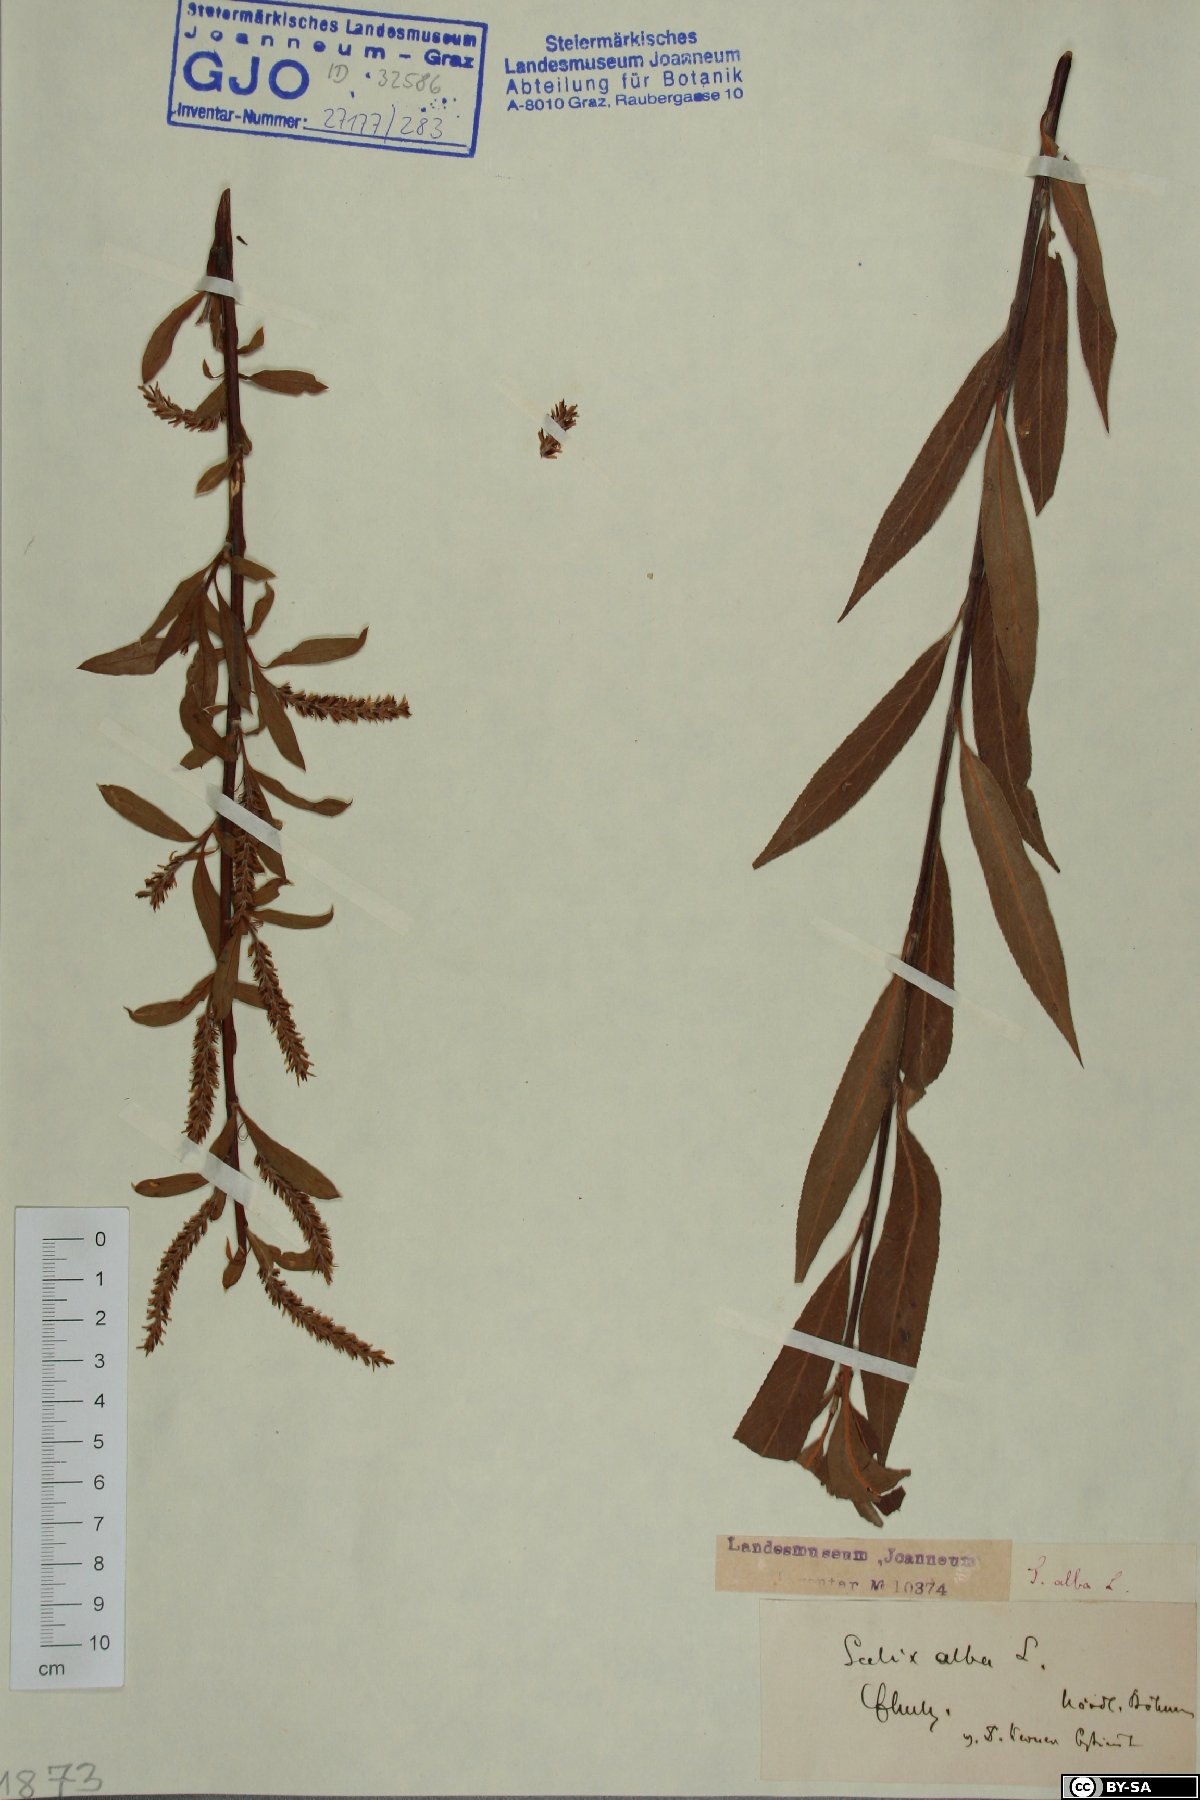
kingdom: Plantae
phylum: Tracheophyta
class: Magnoliopsida
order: Malpighiales
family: Salicaceae
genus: Salix
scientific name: Salix alba
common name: White willow
